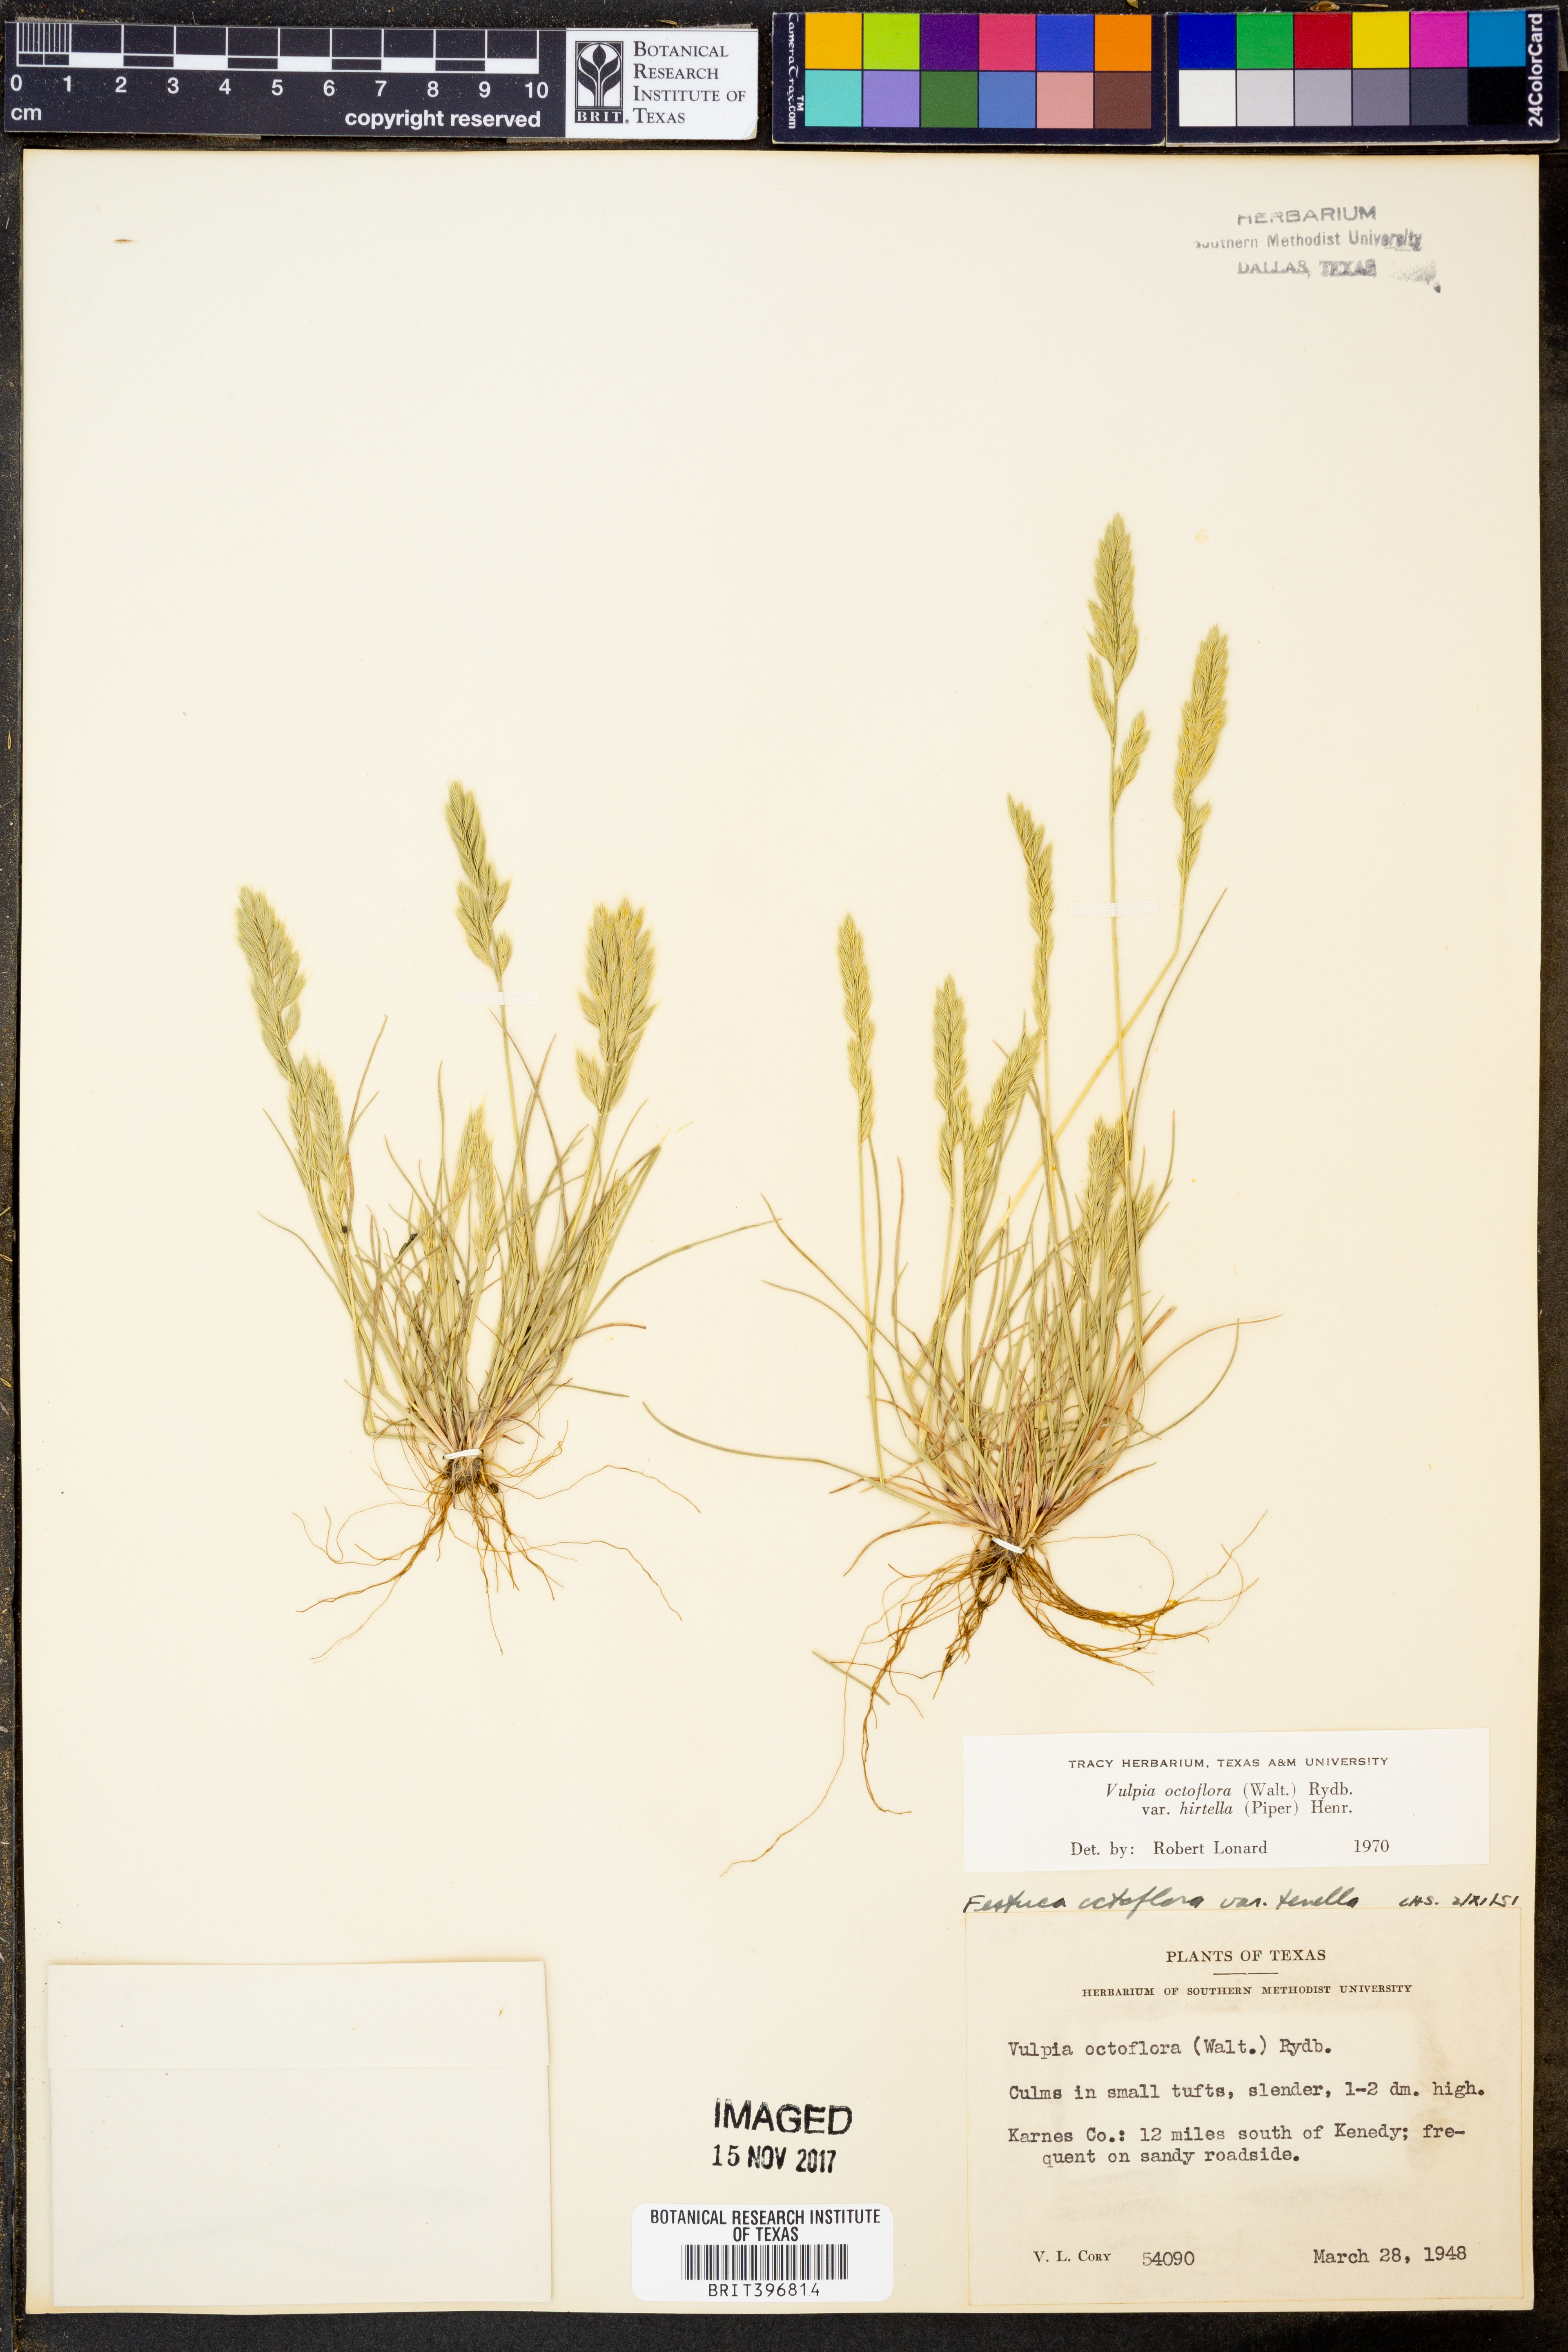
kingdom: Plantae
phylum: Tracheophyta
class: Liliopsida
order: Poales
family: Poaceae
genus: Festuca
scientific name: Festuca octoflora
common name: Sixweeks grass
